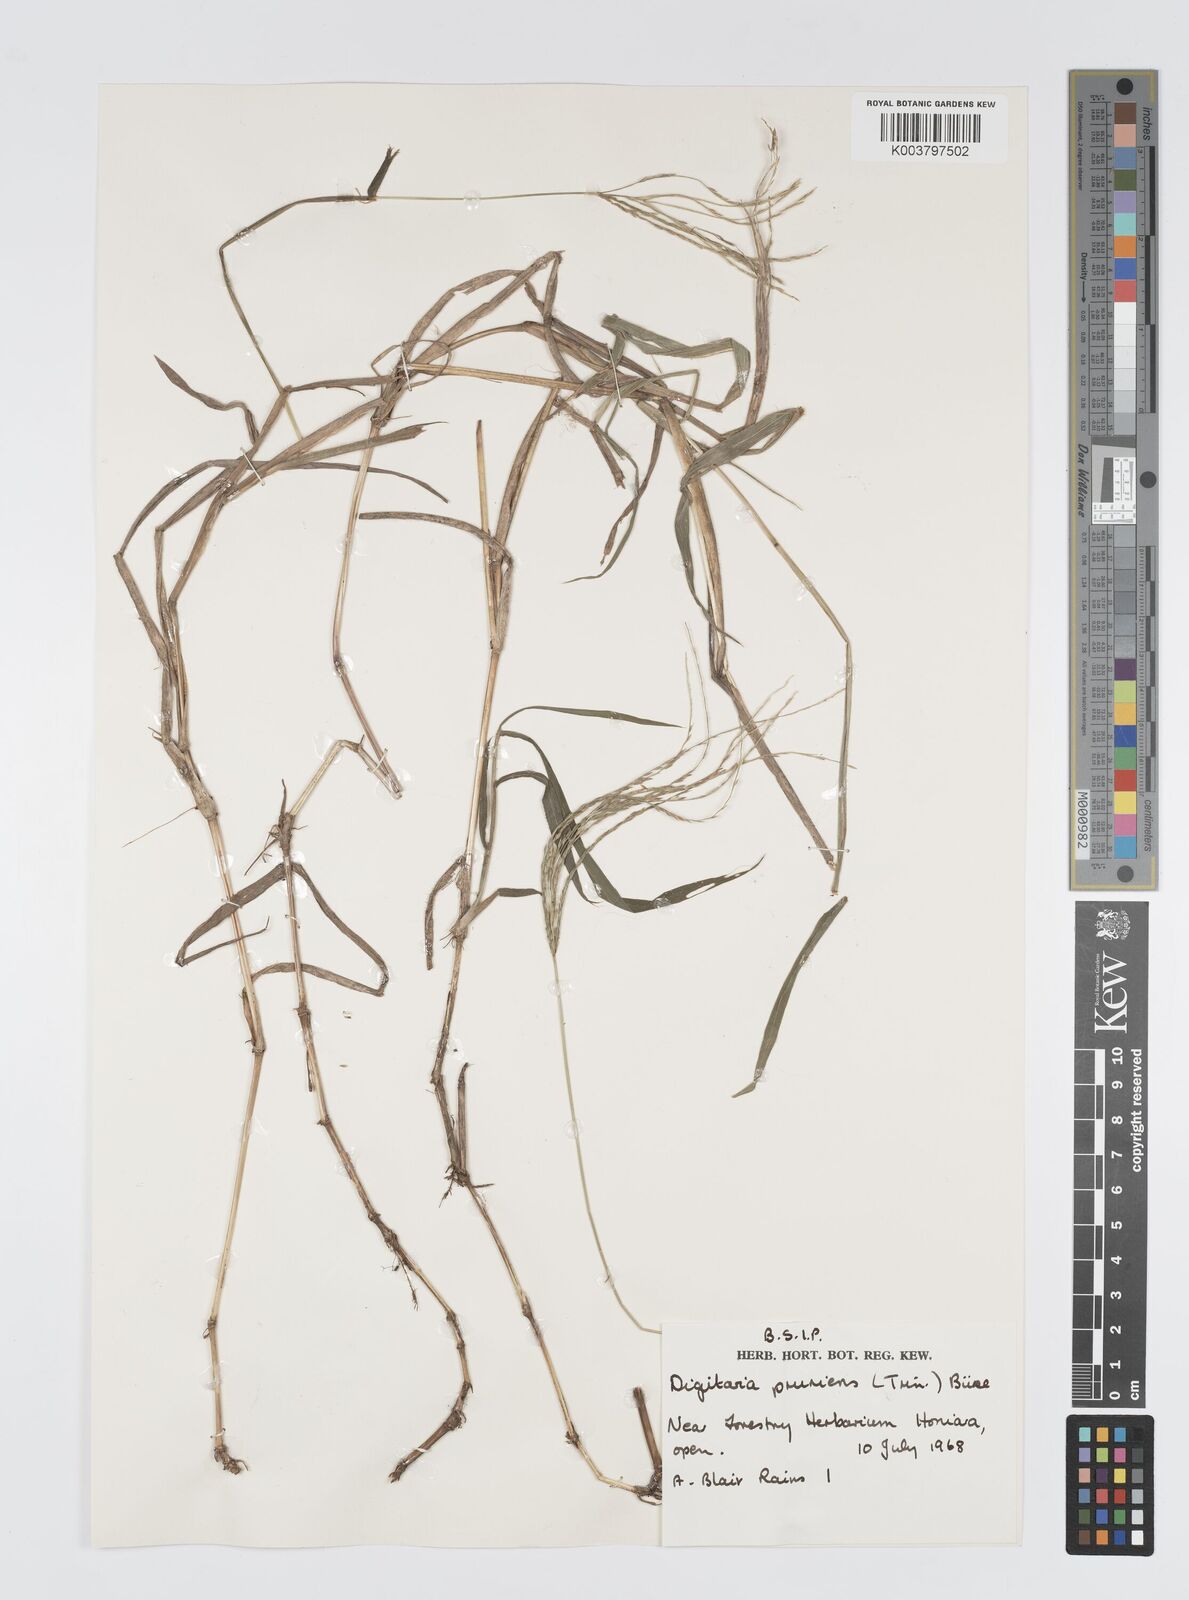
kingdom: Plantae
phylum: Tracheophyta
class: Liliopsida
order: Poales
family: Poaceae
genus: Digitaria
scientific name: Digitaria setigera
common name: East indian crabgrass
